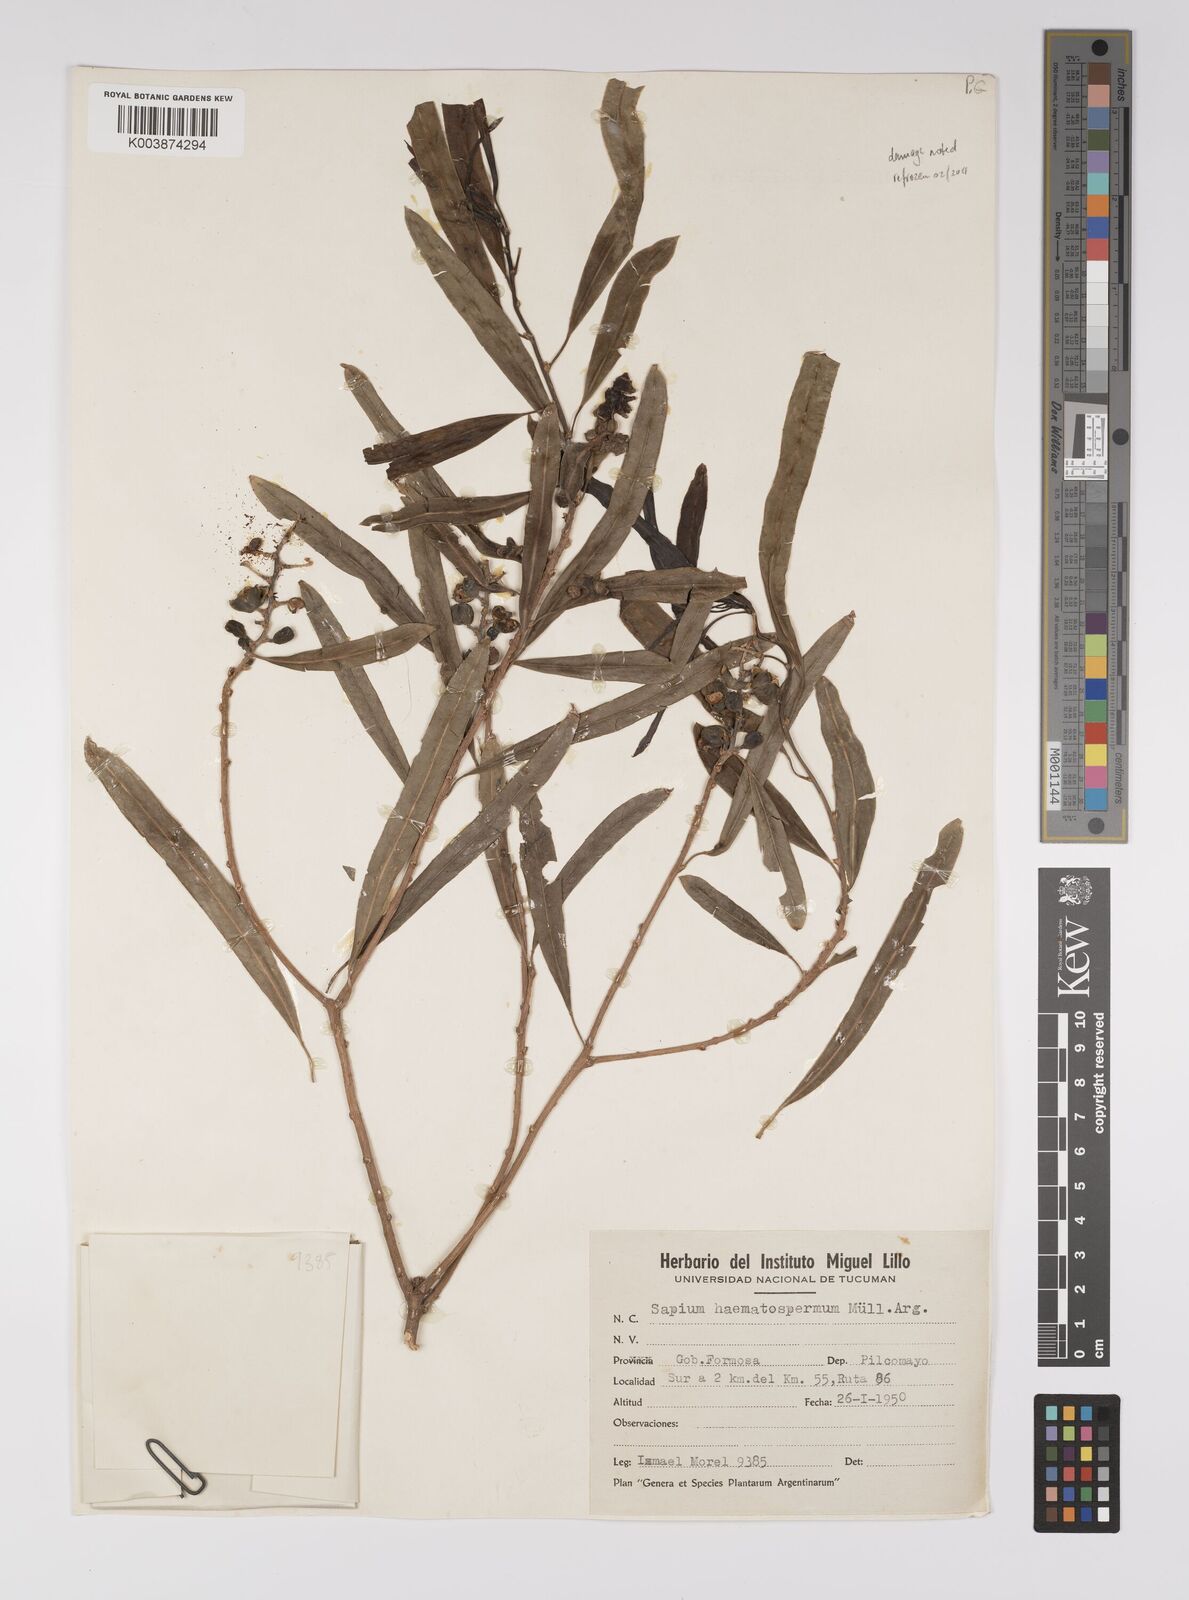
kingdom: Plantae
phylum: Tracheophyta
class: Magnoliopsida
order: Malpighiales
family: Euphorbiaceae
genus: Sapium
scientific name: Sapium haematospermum
